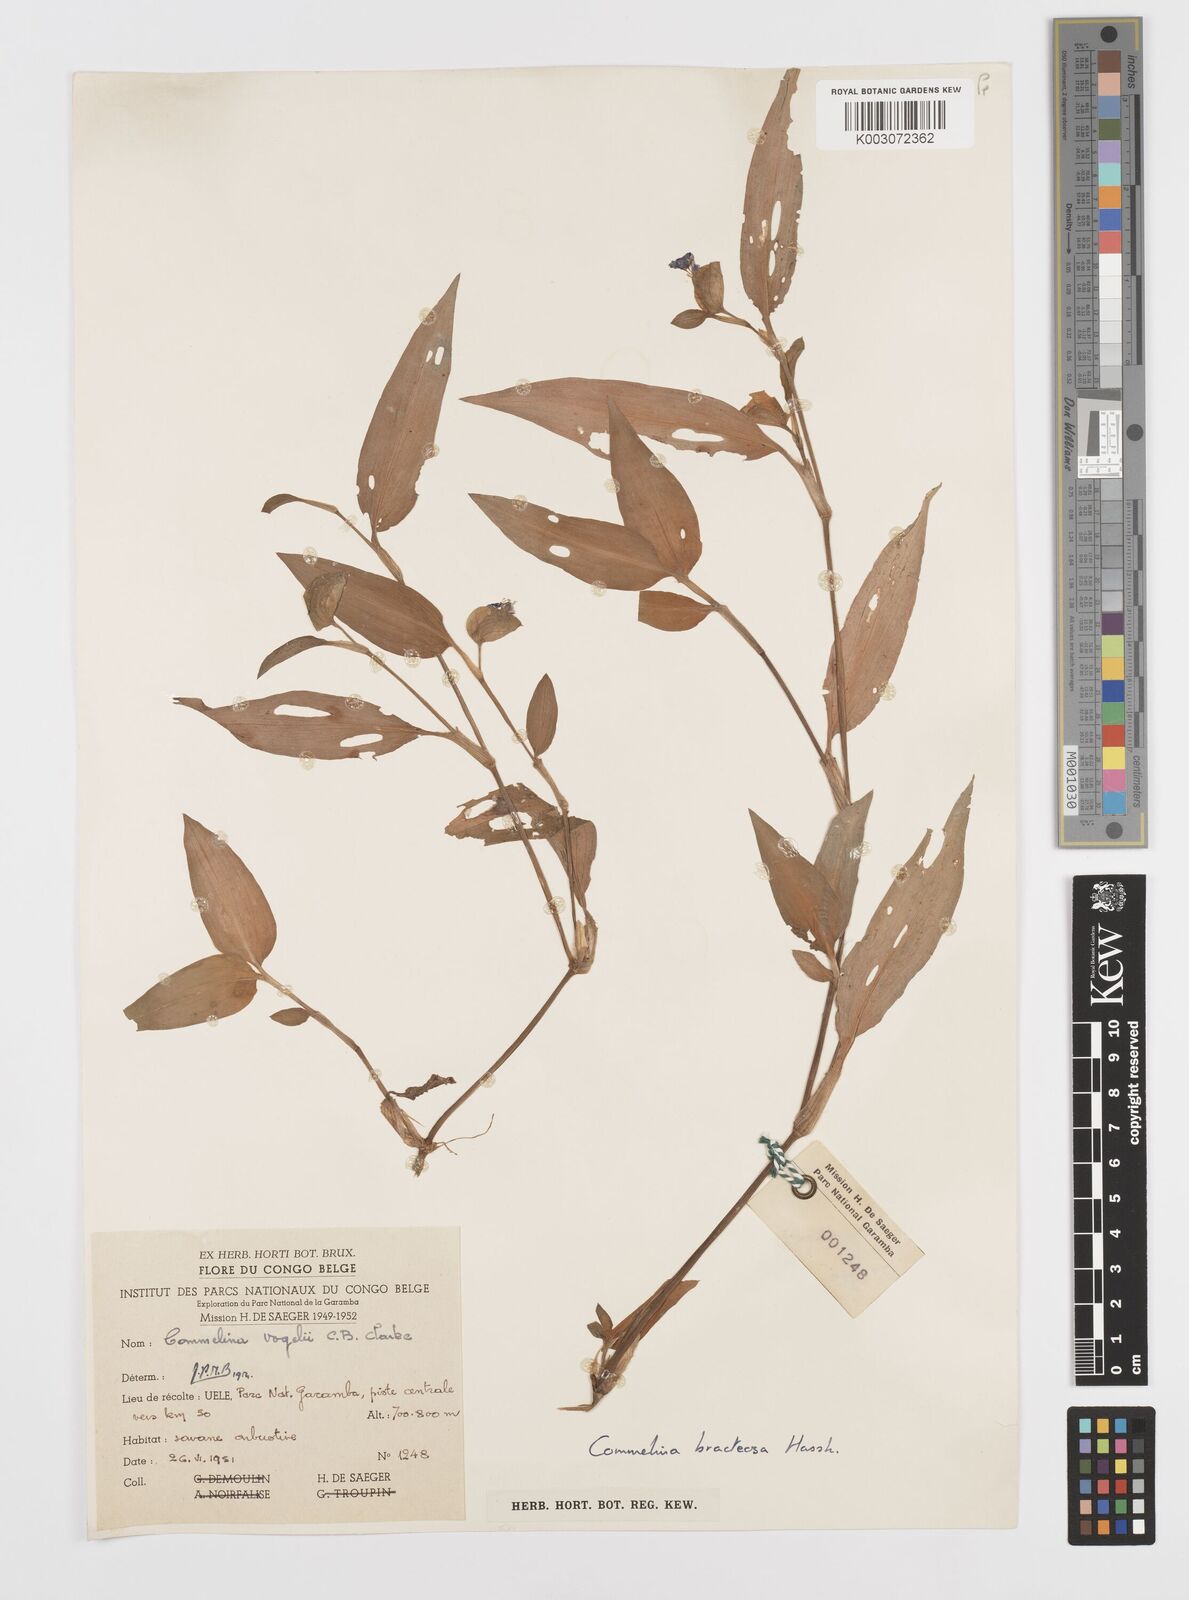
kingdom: Plantae
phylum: Tracheophyta
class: Liliopsida
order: Commelinales
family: Commelinaceae
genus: Commelina
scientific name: Commelina bracteosa
